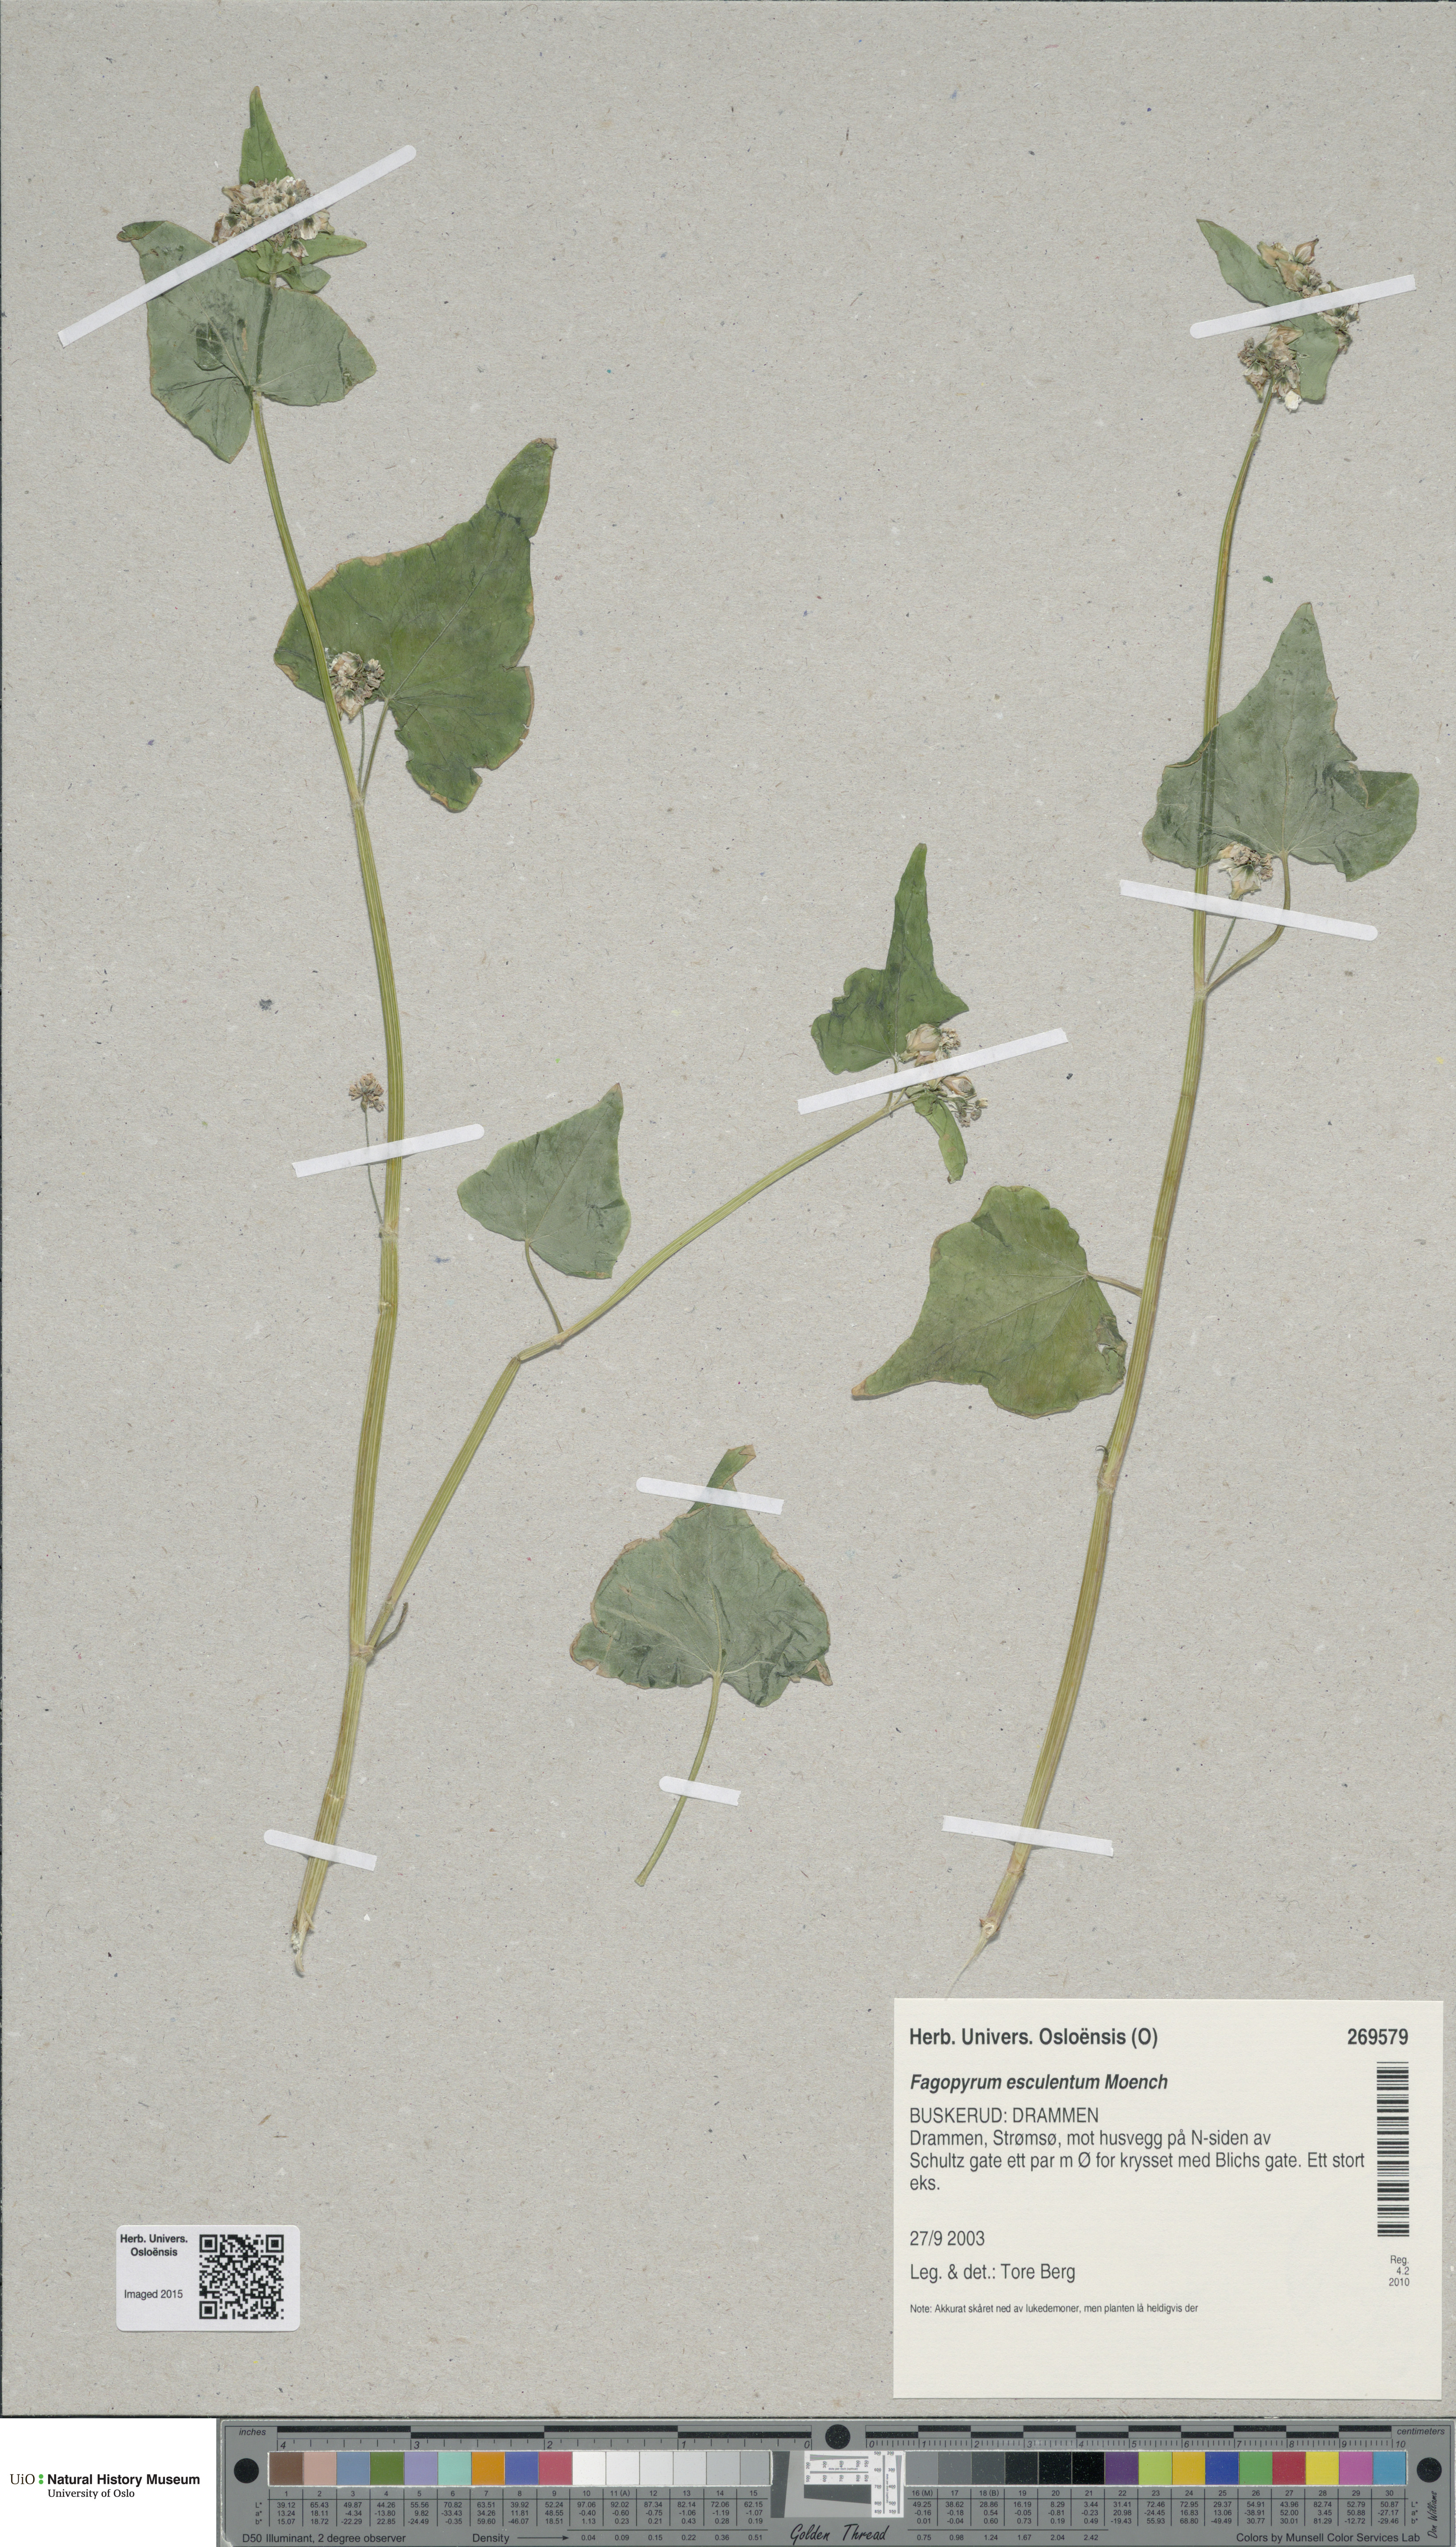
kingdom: Plantae
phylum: Tracheophyta
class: Magnoliopsida
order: Caryophyllales
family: Polygonaceae
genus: Fagopyrum
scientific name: Fagopyrum esculentum
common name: Buckwheat
